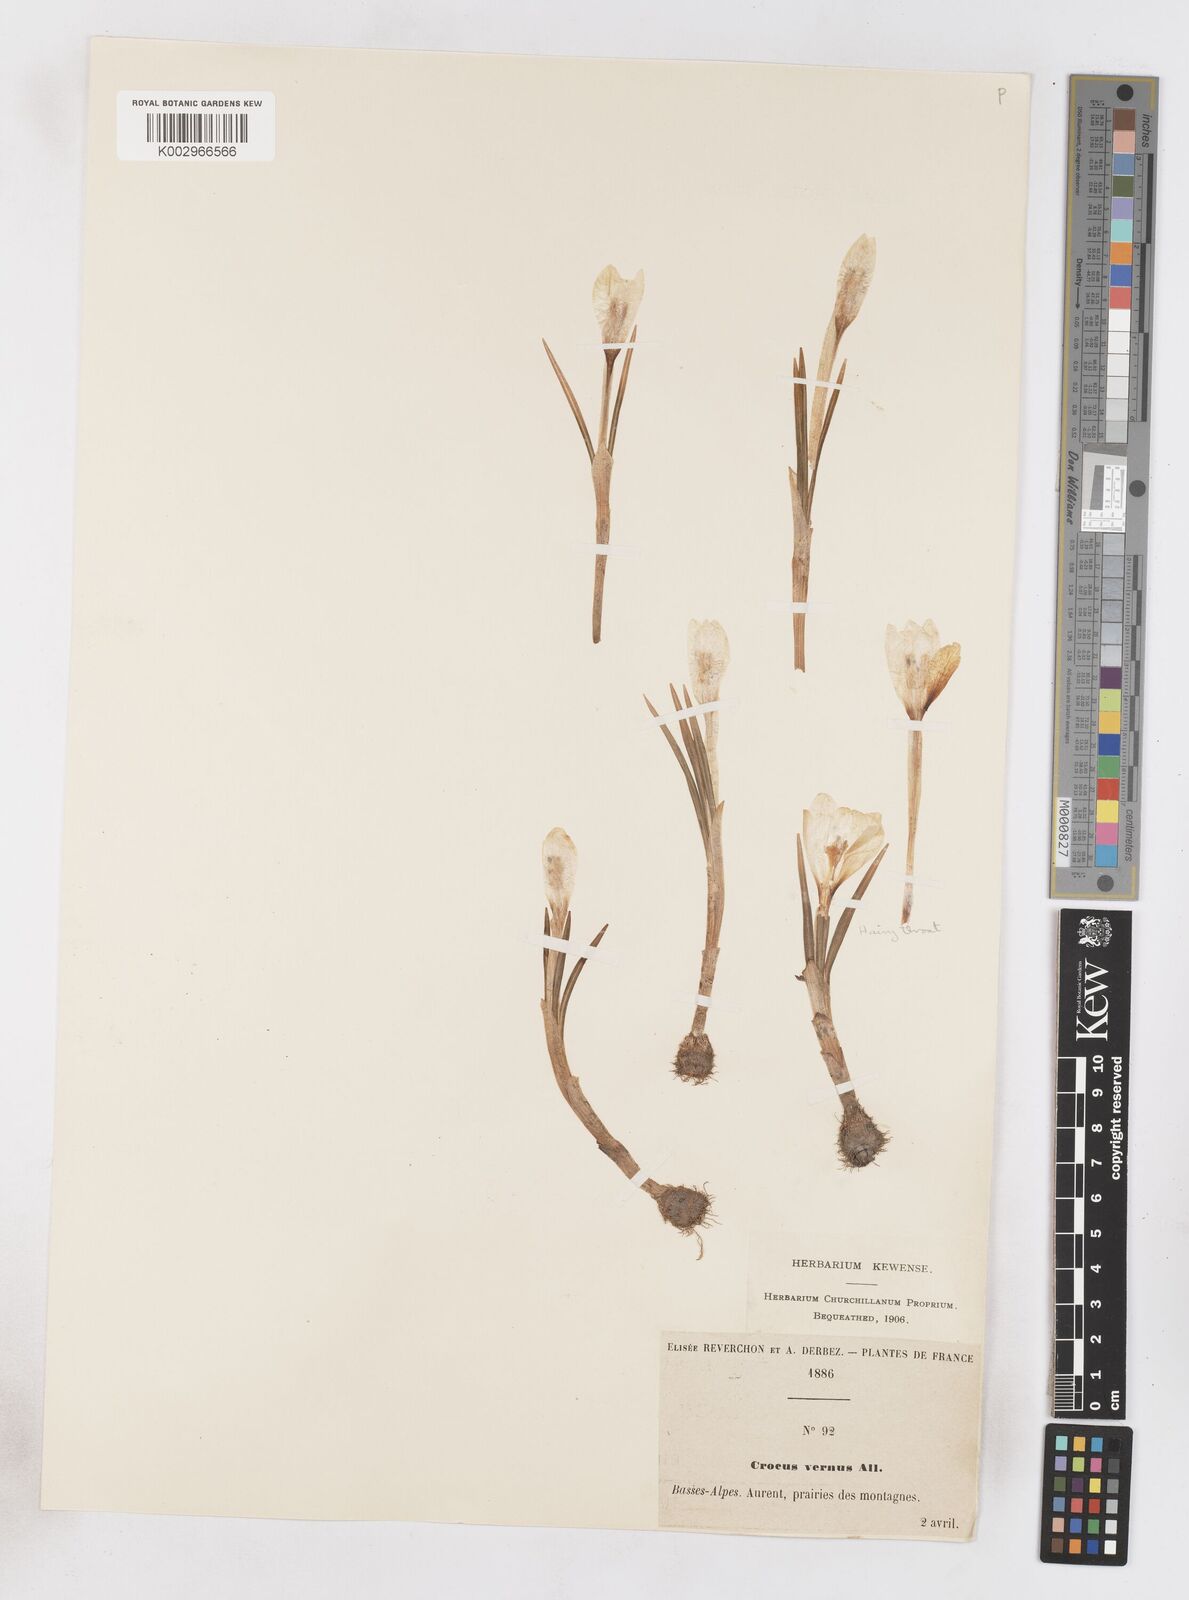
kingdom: Plantae
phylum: Tracheophyta
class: Liliopsida
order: Asparagales
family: Iridaceae
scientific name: Iridaceae
